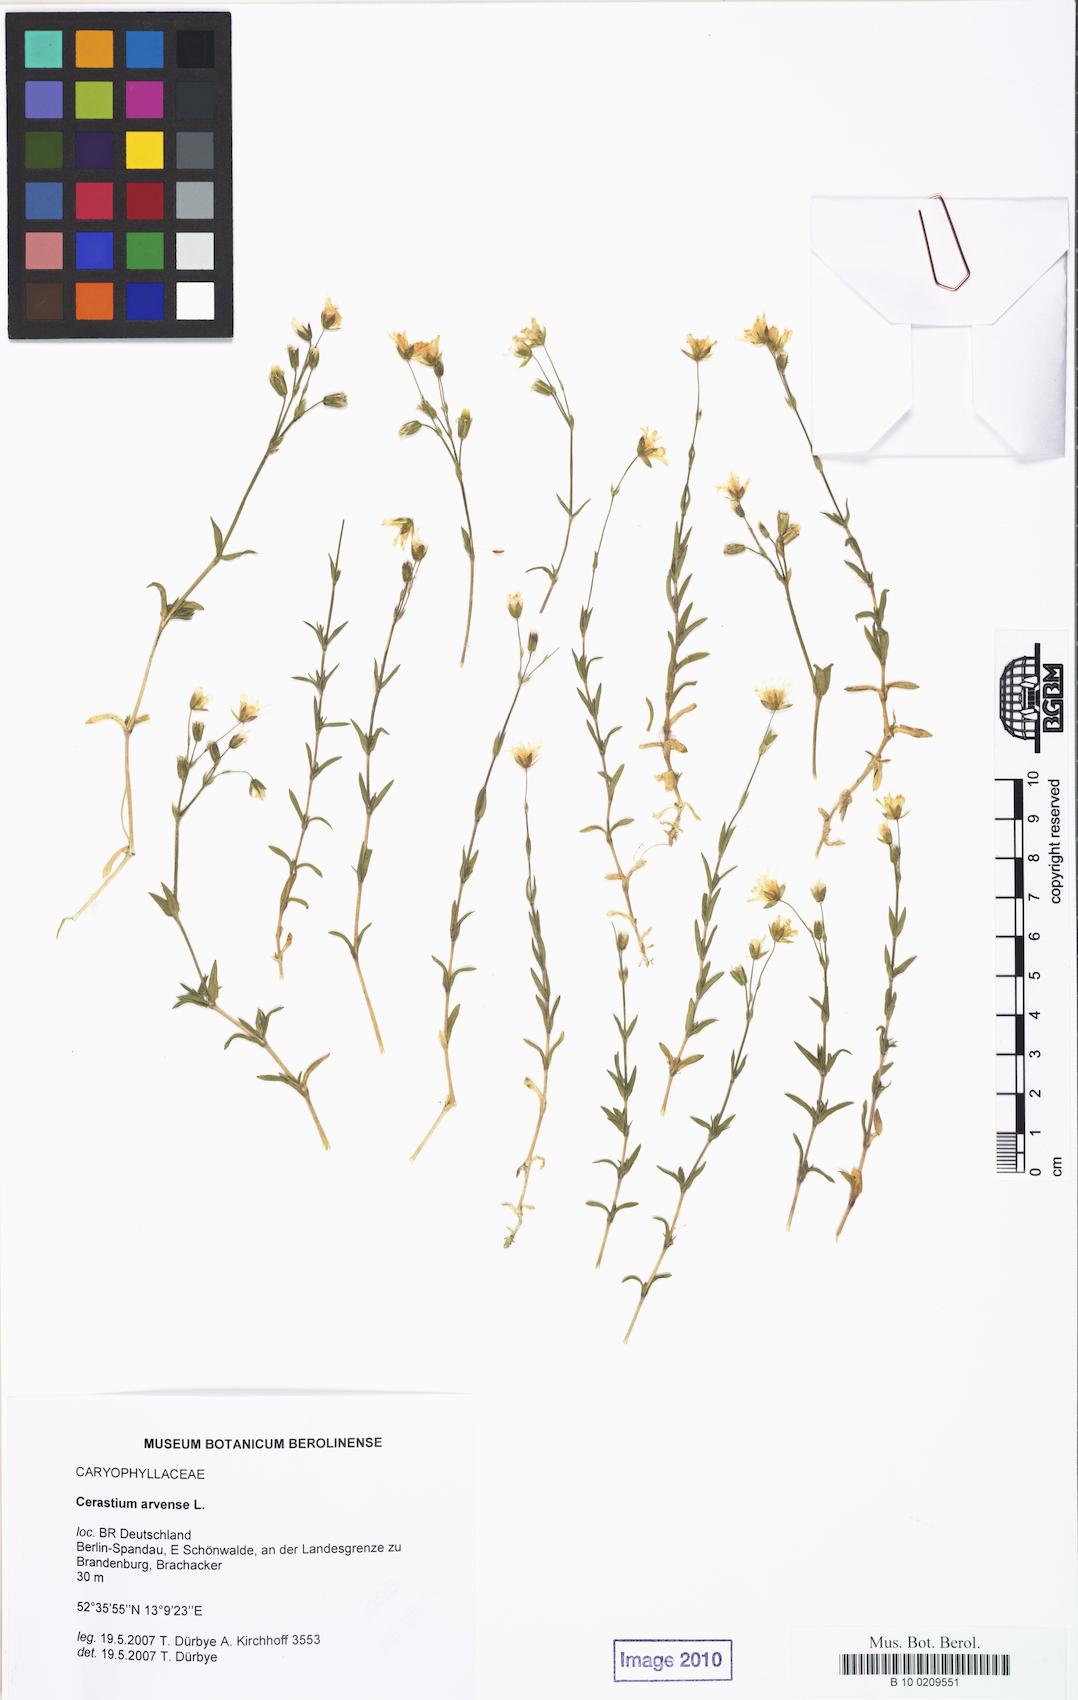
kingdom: Plantae
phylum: Tracheophyta
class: Magnoliopsida
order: Caryophyllales
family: Caryophyllaceae
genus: Cerastium
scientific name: Cerastium arvense
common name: Field mouse-ear
